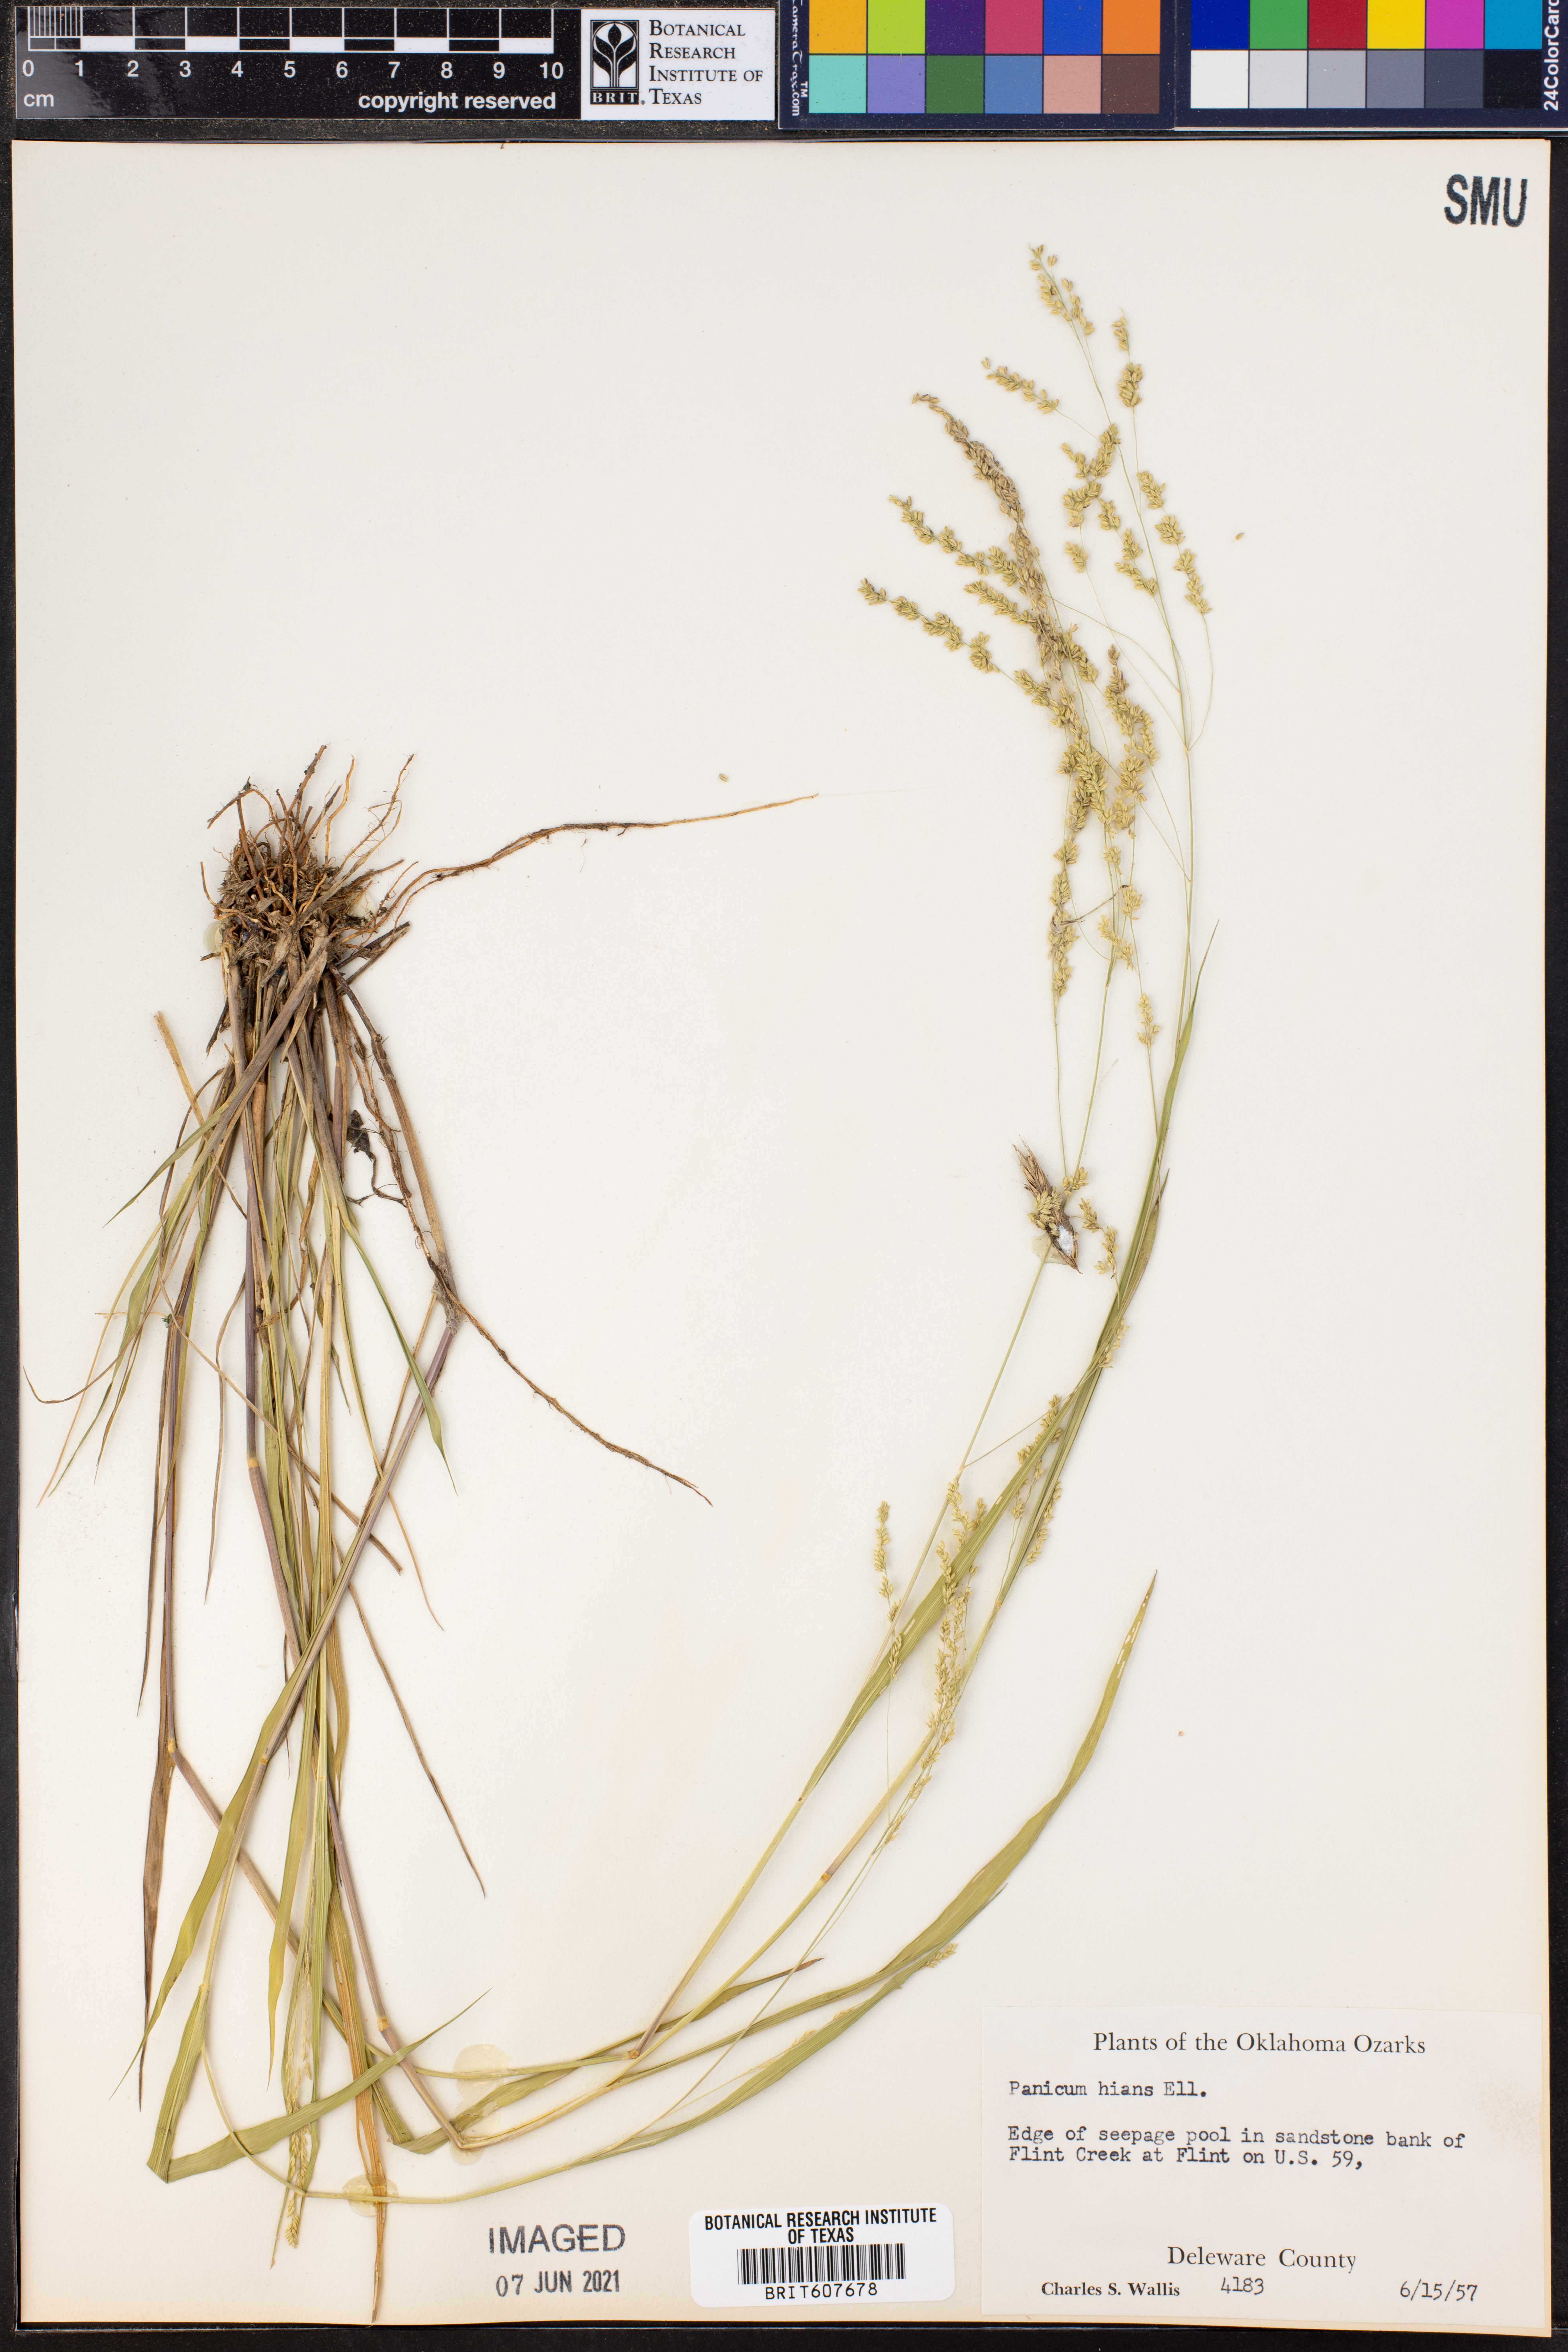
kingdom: Plantae
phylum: Tracheophyta
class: Liliopsida
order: Poales
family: Poaceae
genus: Coleataenia
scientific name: Coleataenia stenodes
